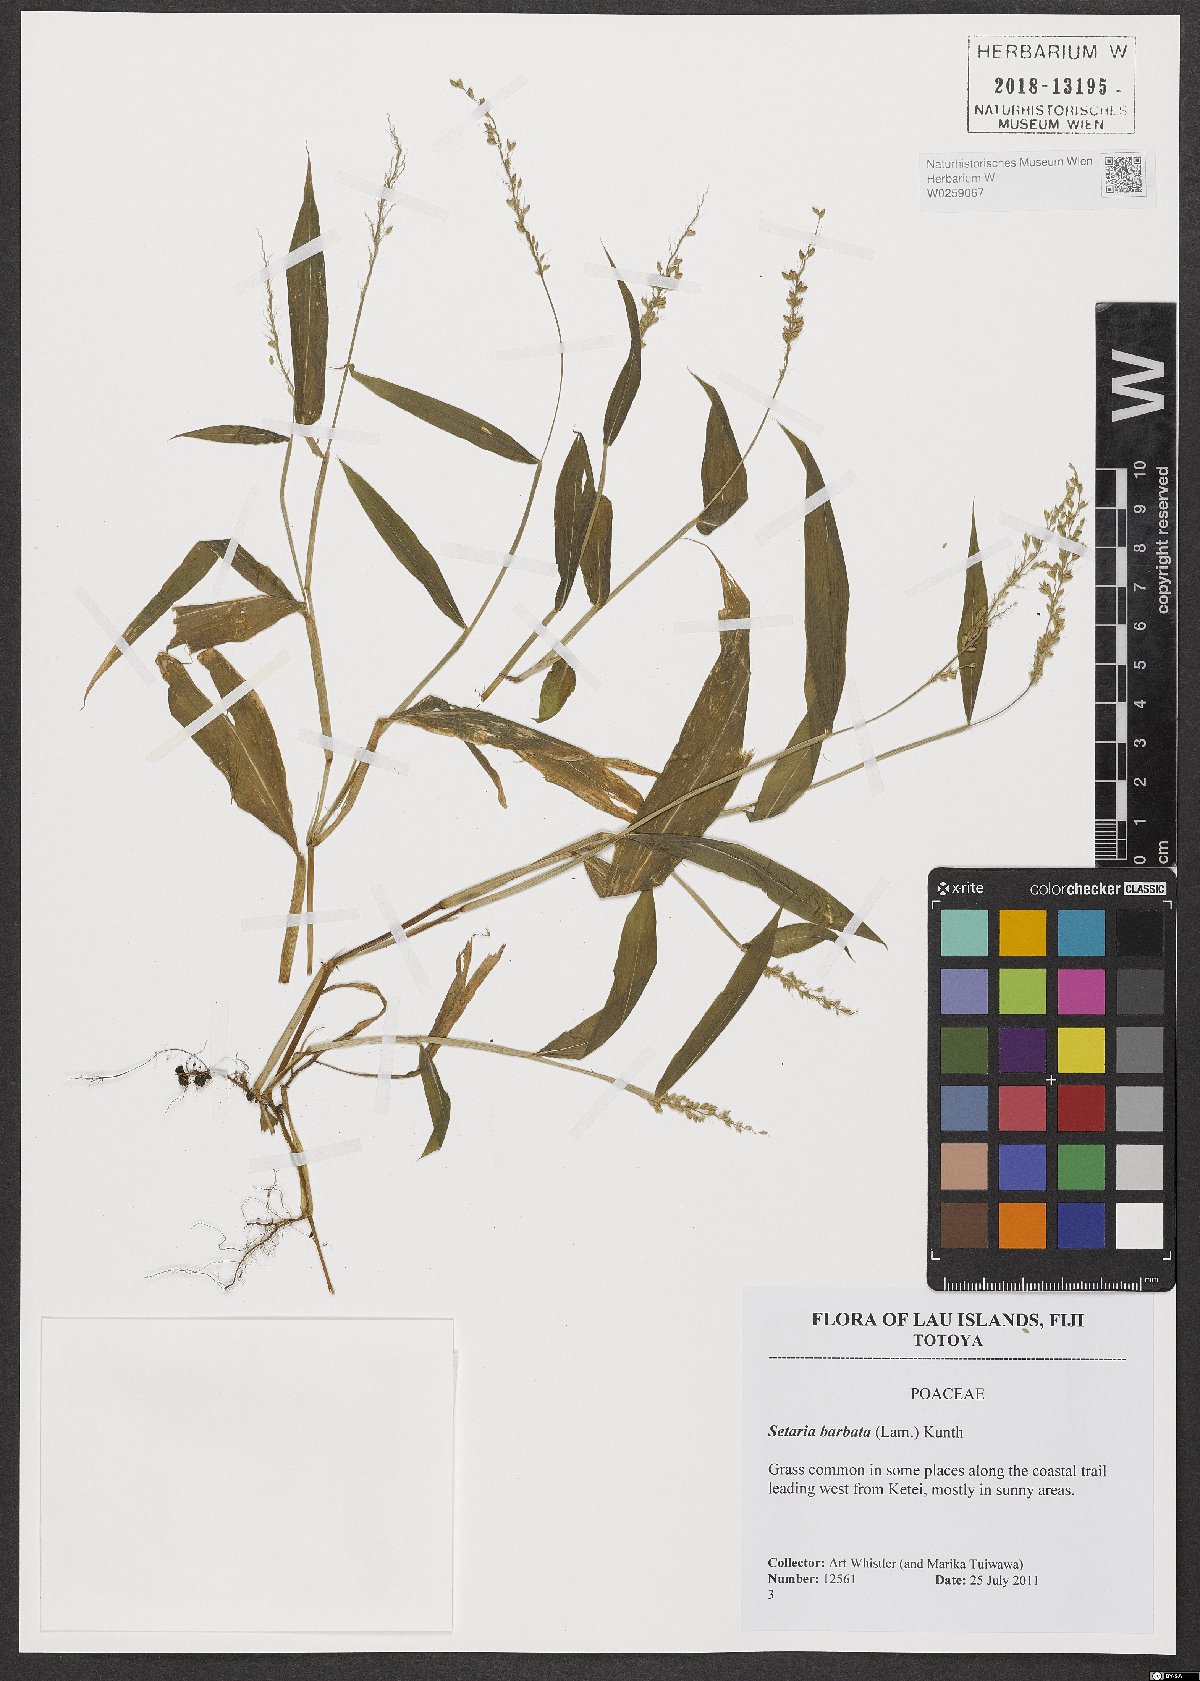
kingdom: Plantae
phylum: Tracheophyta
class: Liliopsida
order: Poales
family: Poaceae
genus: Setaria
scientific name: Setaria barbata
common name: East indian bristlegrass
